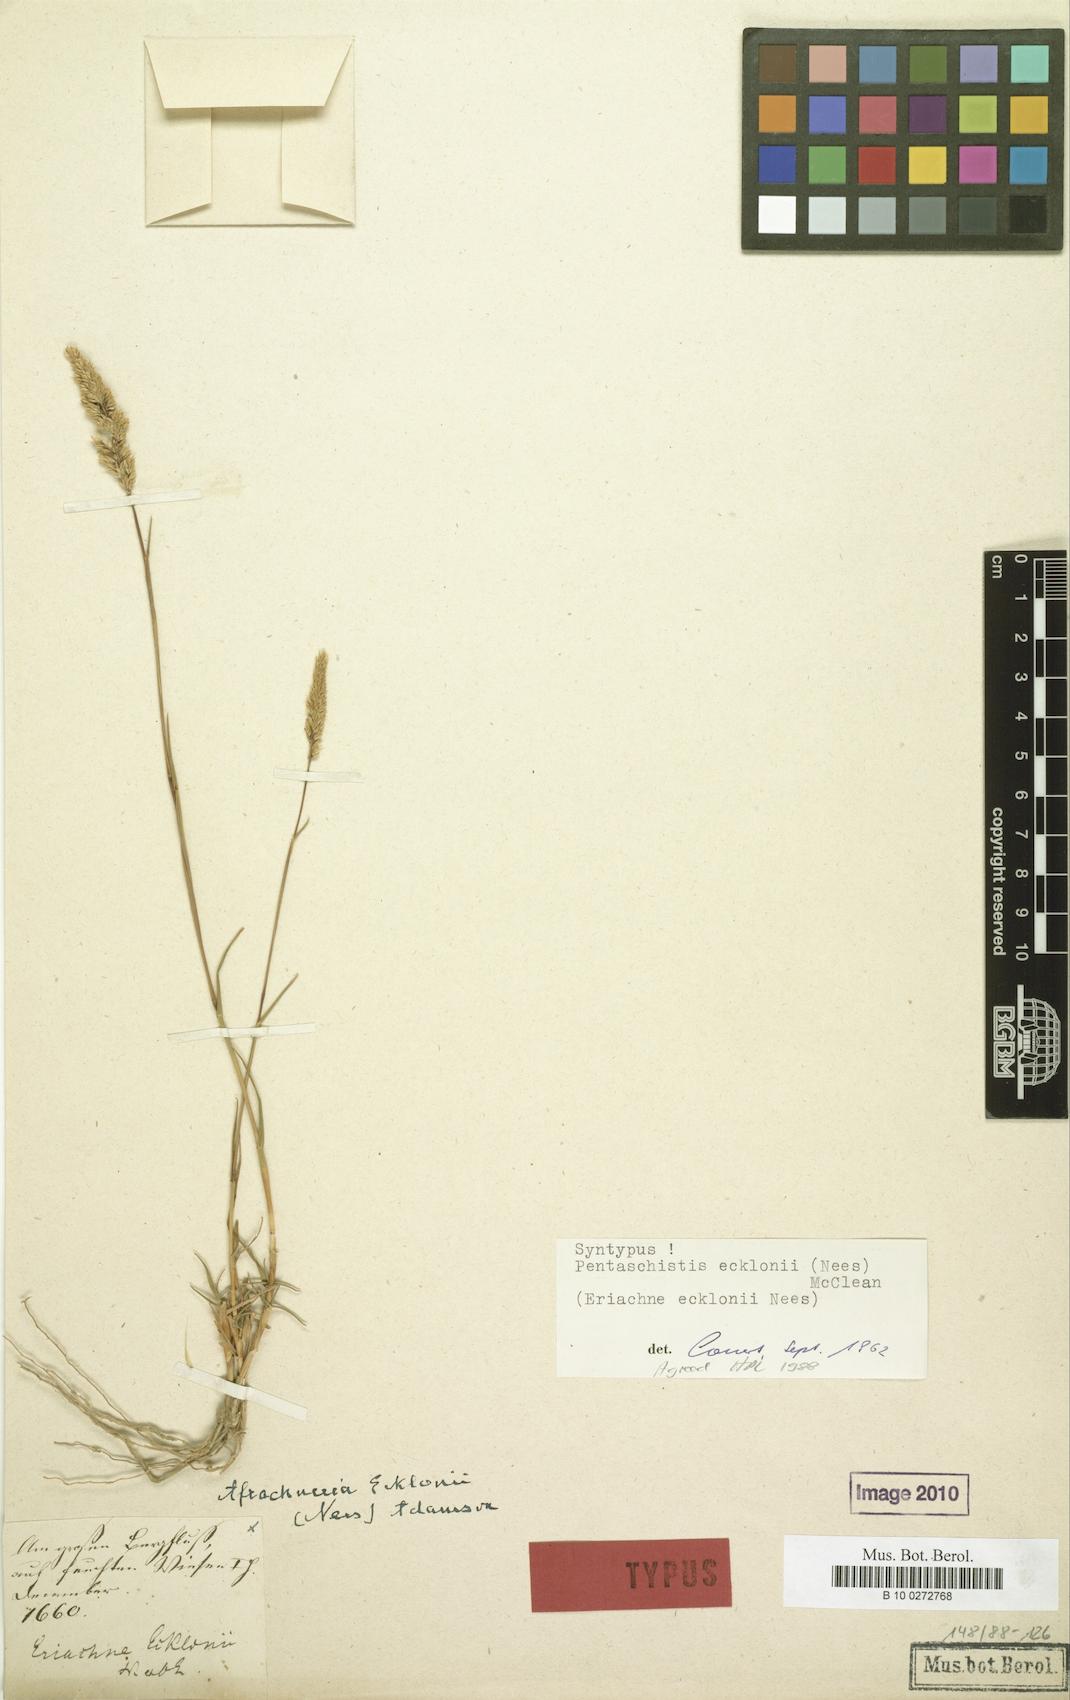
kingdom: Plantae
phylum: Tracheophyta
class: Liliopsida
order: Poales
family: Poaceae
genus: Pentameris
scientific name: Pentameris ecklonii
